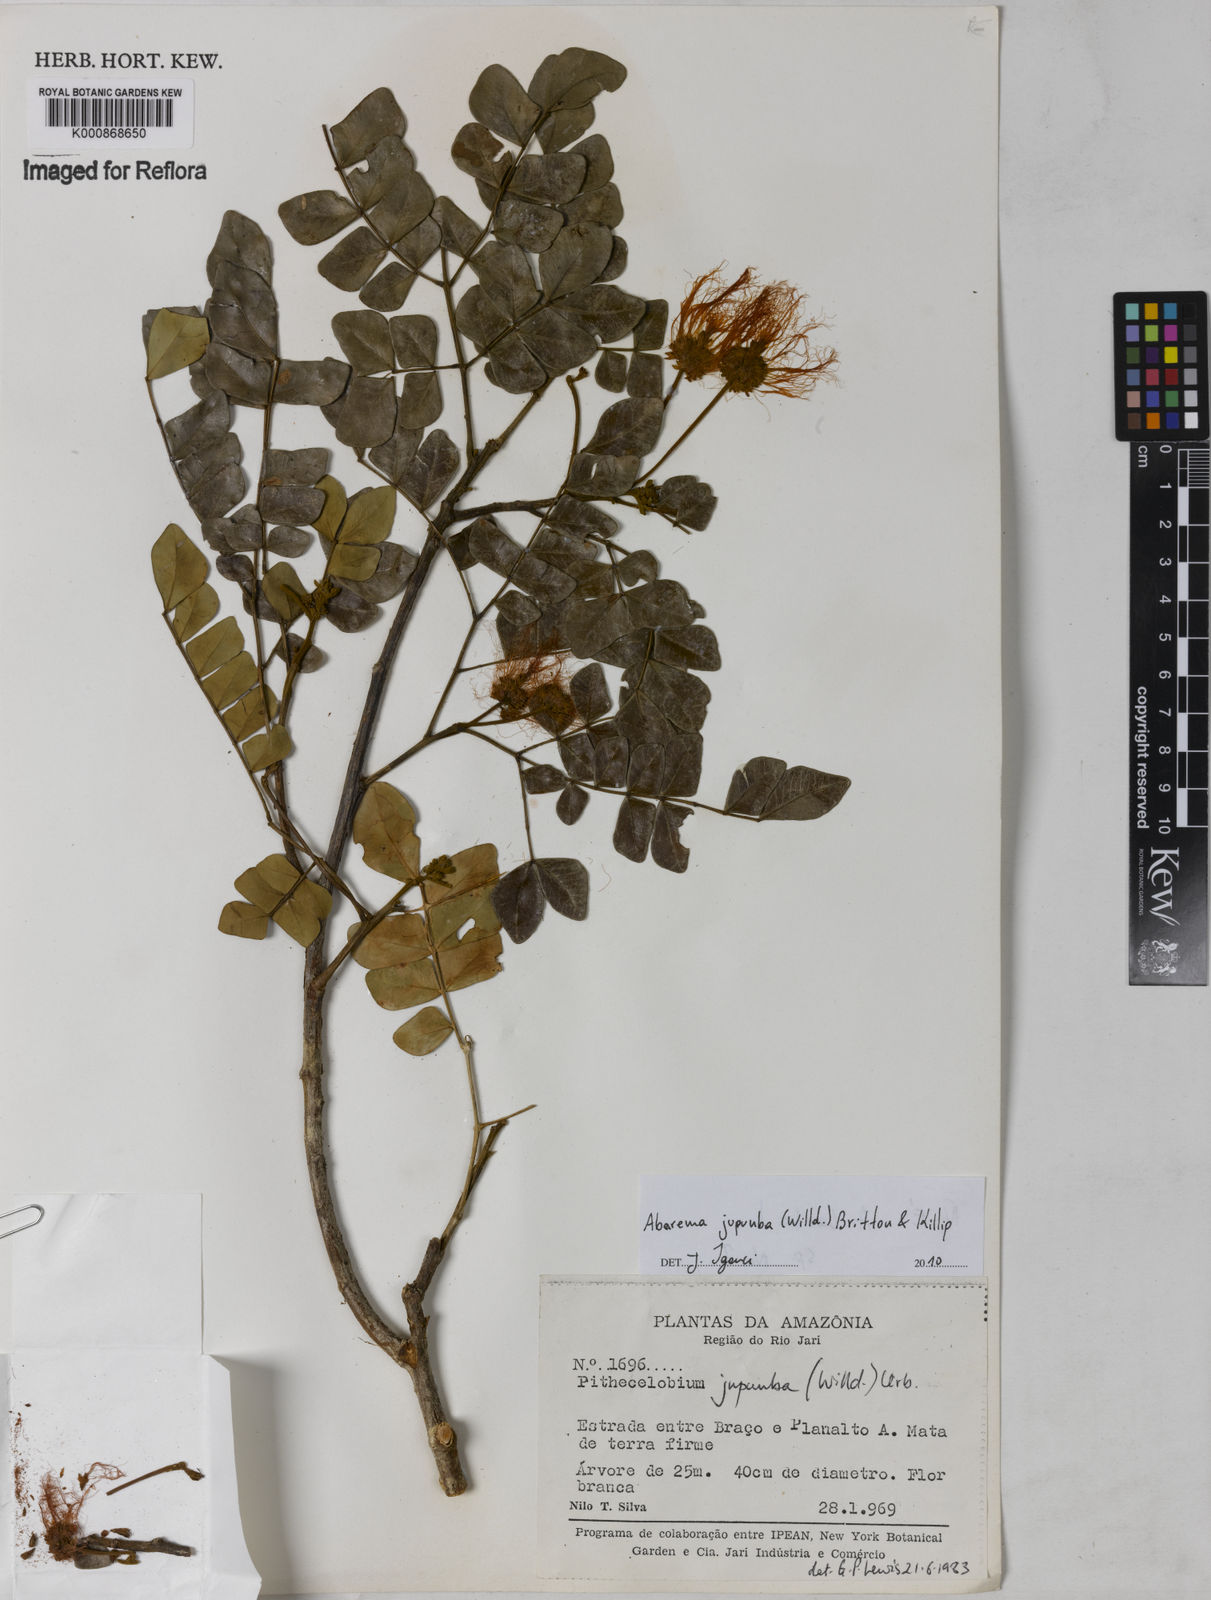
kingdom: Plantae
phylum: Tracheophyta
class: Magnoliopsida
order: Fabales
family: Fabaceae
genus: Jupunba
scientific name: Jupunba trapezifolia
